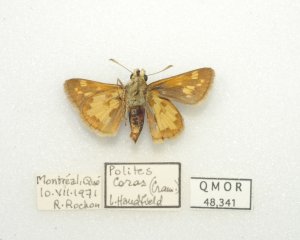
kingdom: Animalia
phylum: Arthropoda
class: Insecta
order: Lepidoptera
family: Hesperiidae
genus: Polites
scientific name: Polites coras
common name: Peck's Skipper
